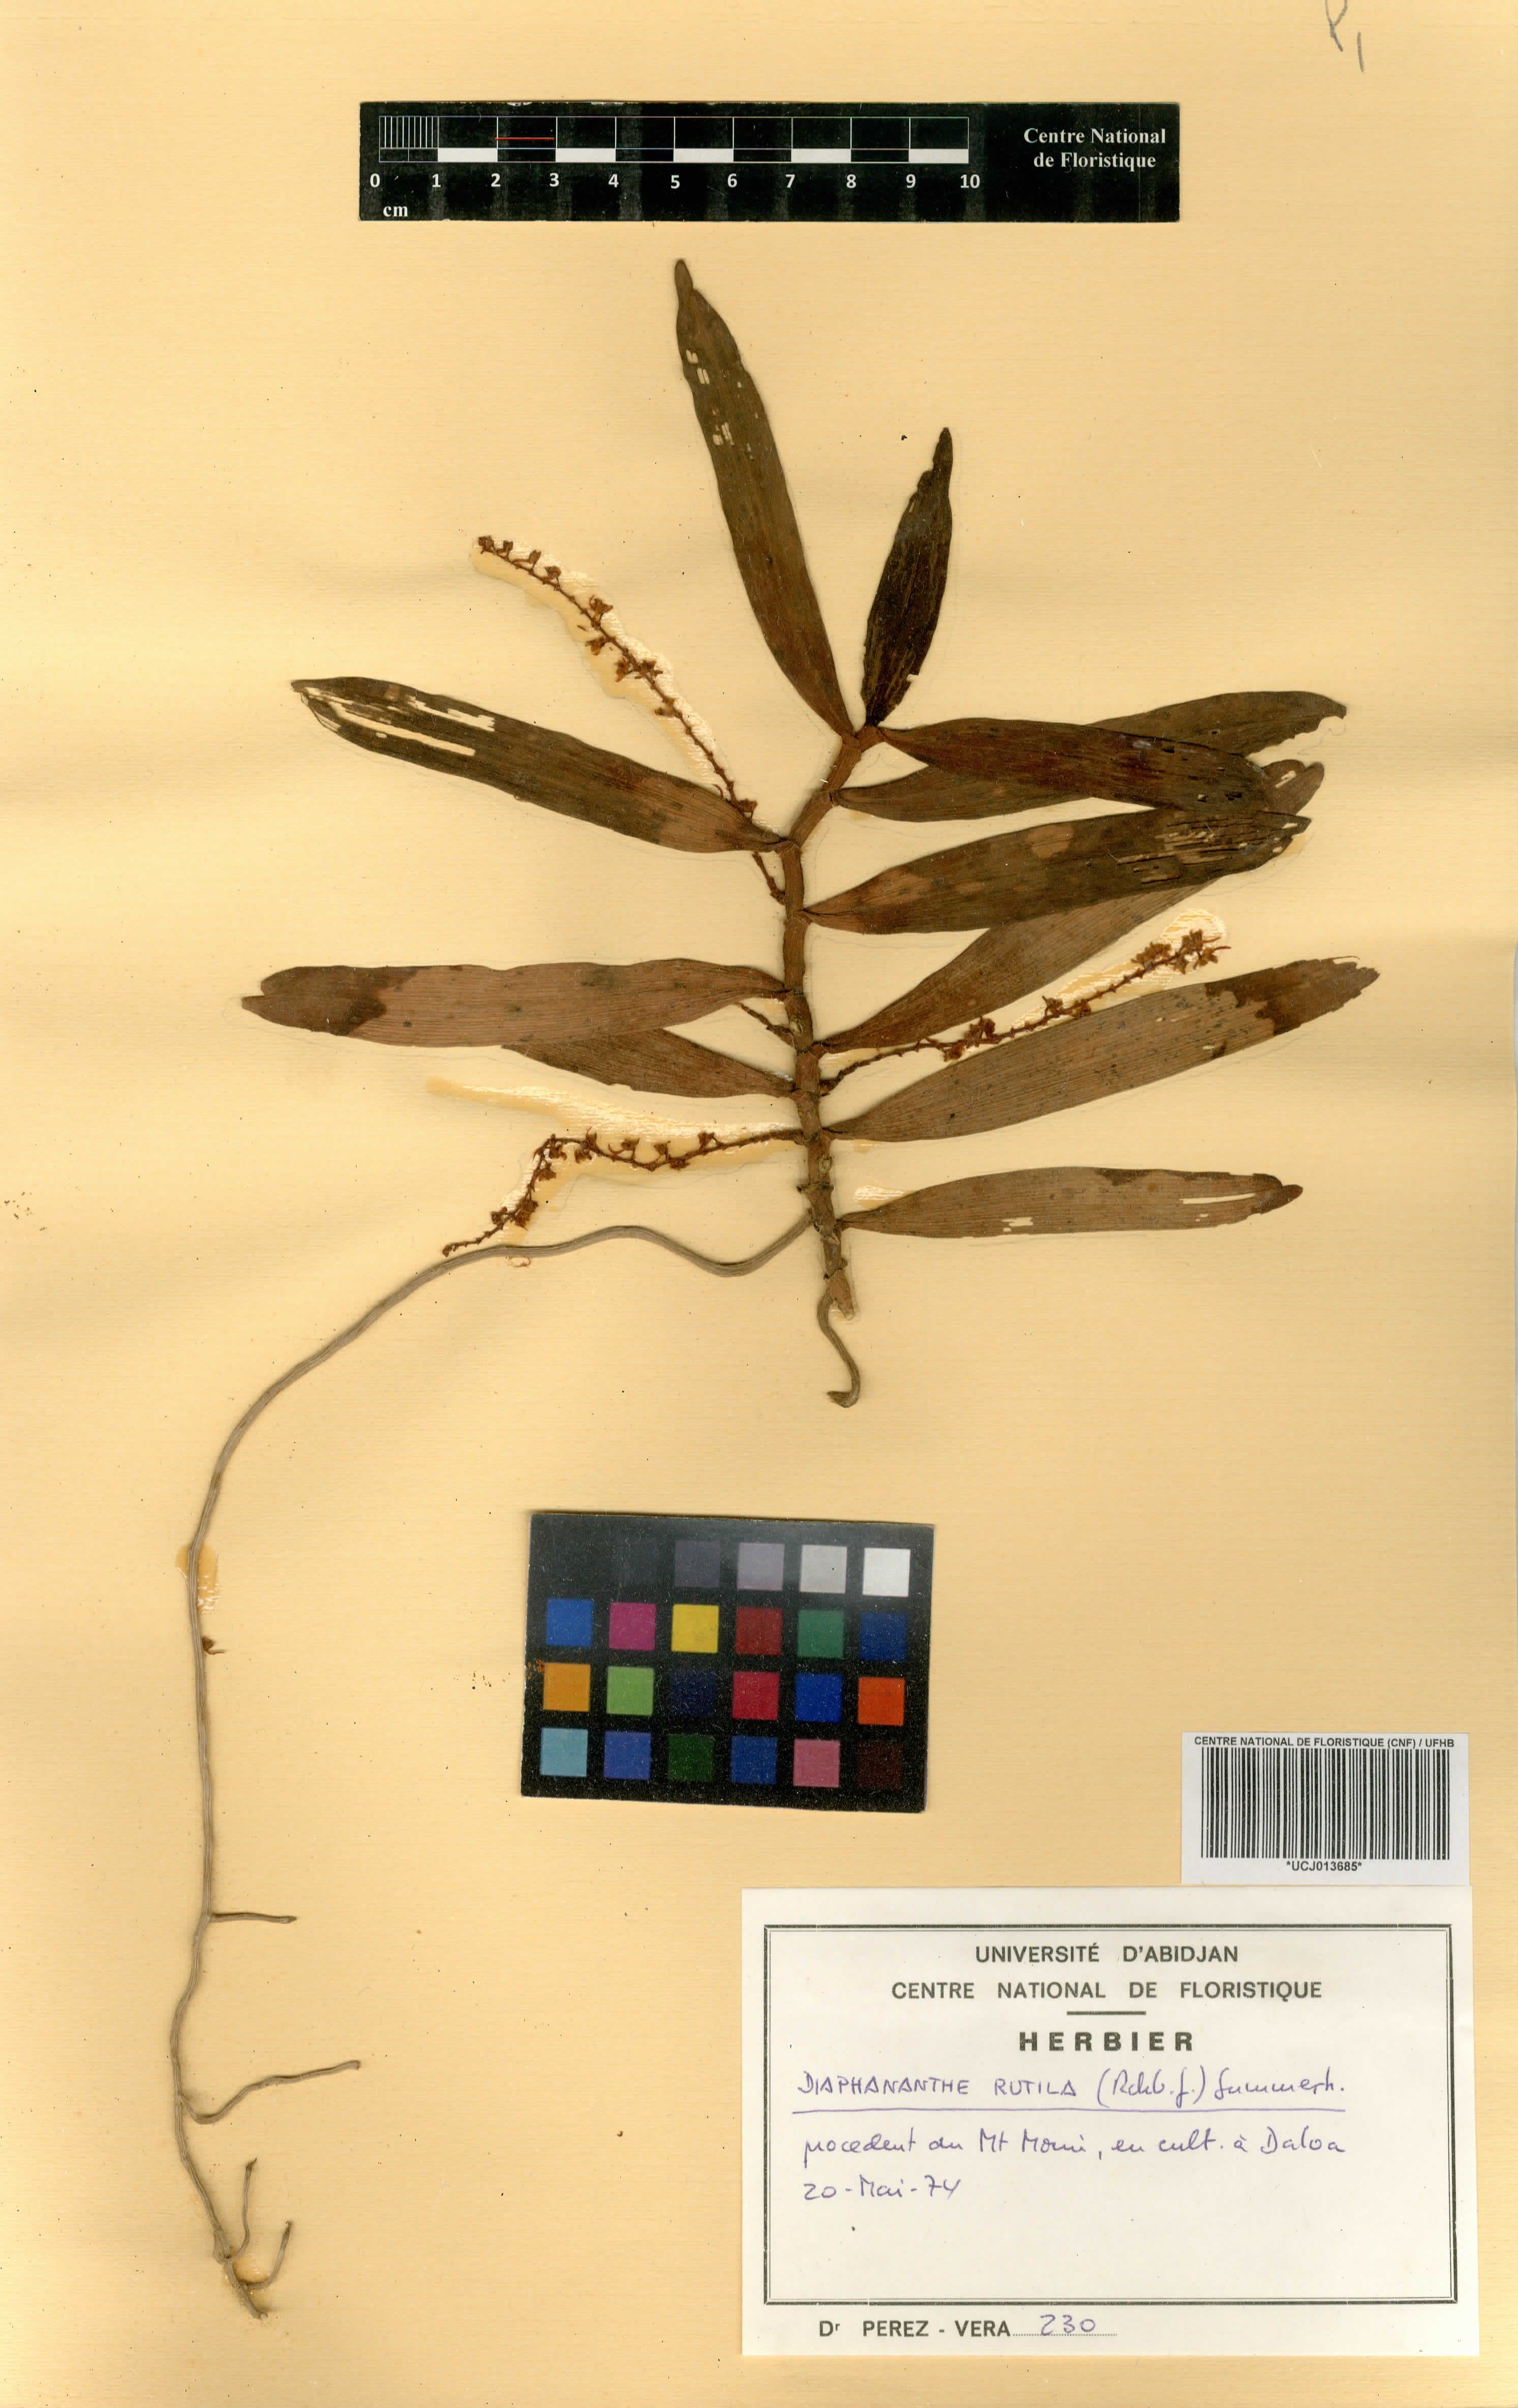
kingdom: Plantae
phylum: Tracheophyta
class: Liliopsida
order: Asparagales
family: Orchidaceae
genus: Rhipidoglossum
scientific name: Rhipidoglossum rutilum
